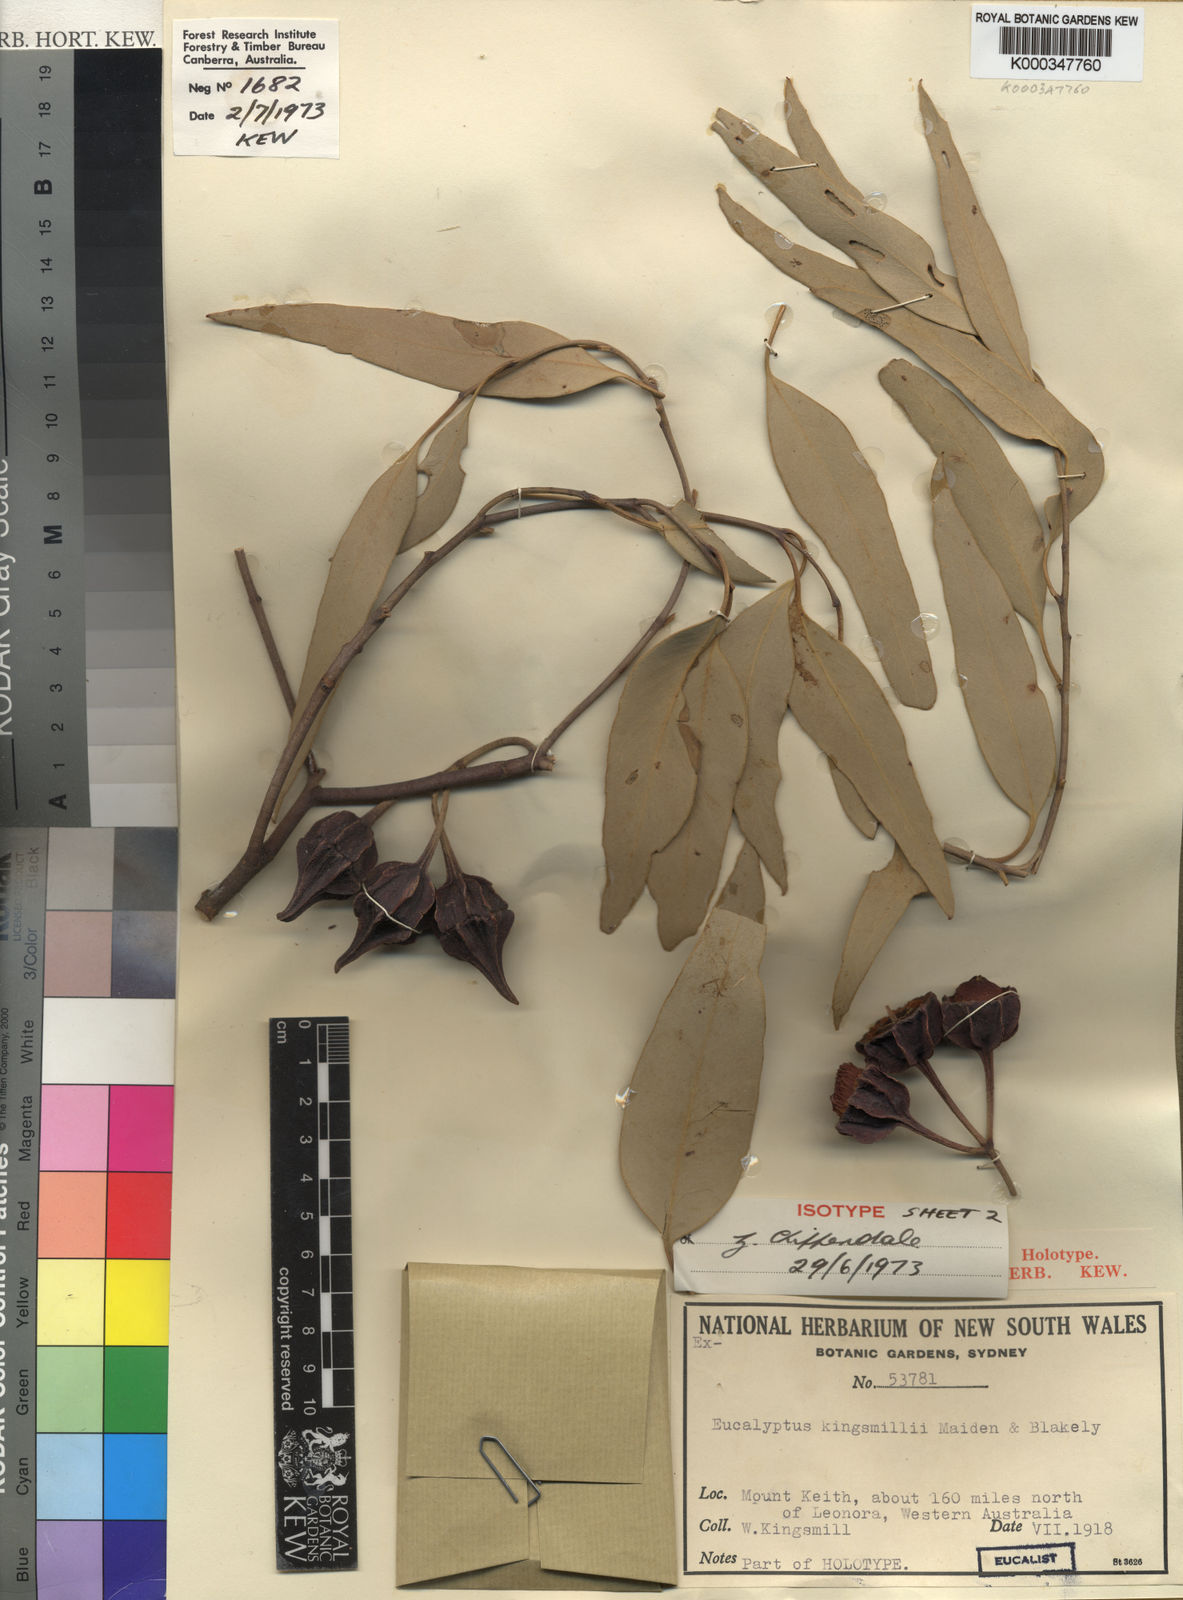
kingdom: Plantae
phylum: Tracheophyta
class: Magnoliopsida
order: Myrtales
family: Myrtaceae
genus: Eucalyptus
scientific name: Eucalyptus kingsmillii
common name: Kingsmill's mallee
